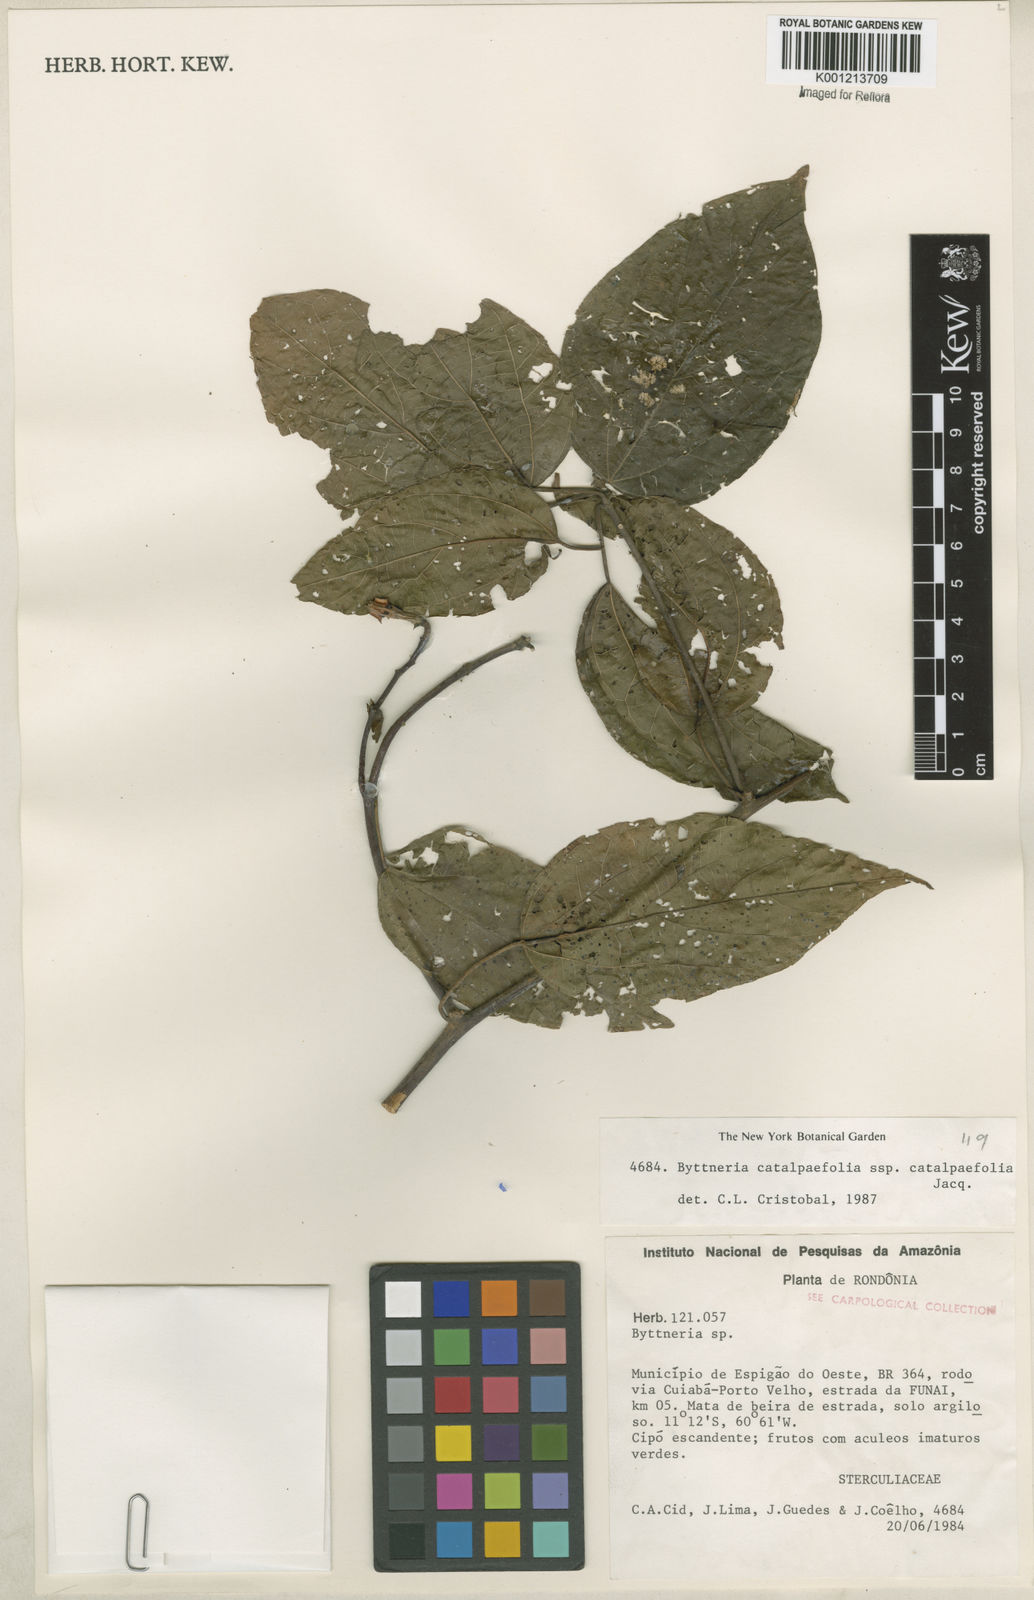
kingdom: Plantae
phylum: Tracheophyta
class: Magnoliopsida
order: Malvales
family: Malvaceae
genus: Byttneria
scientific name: Byttneria catalpifolia
